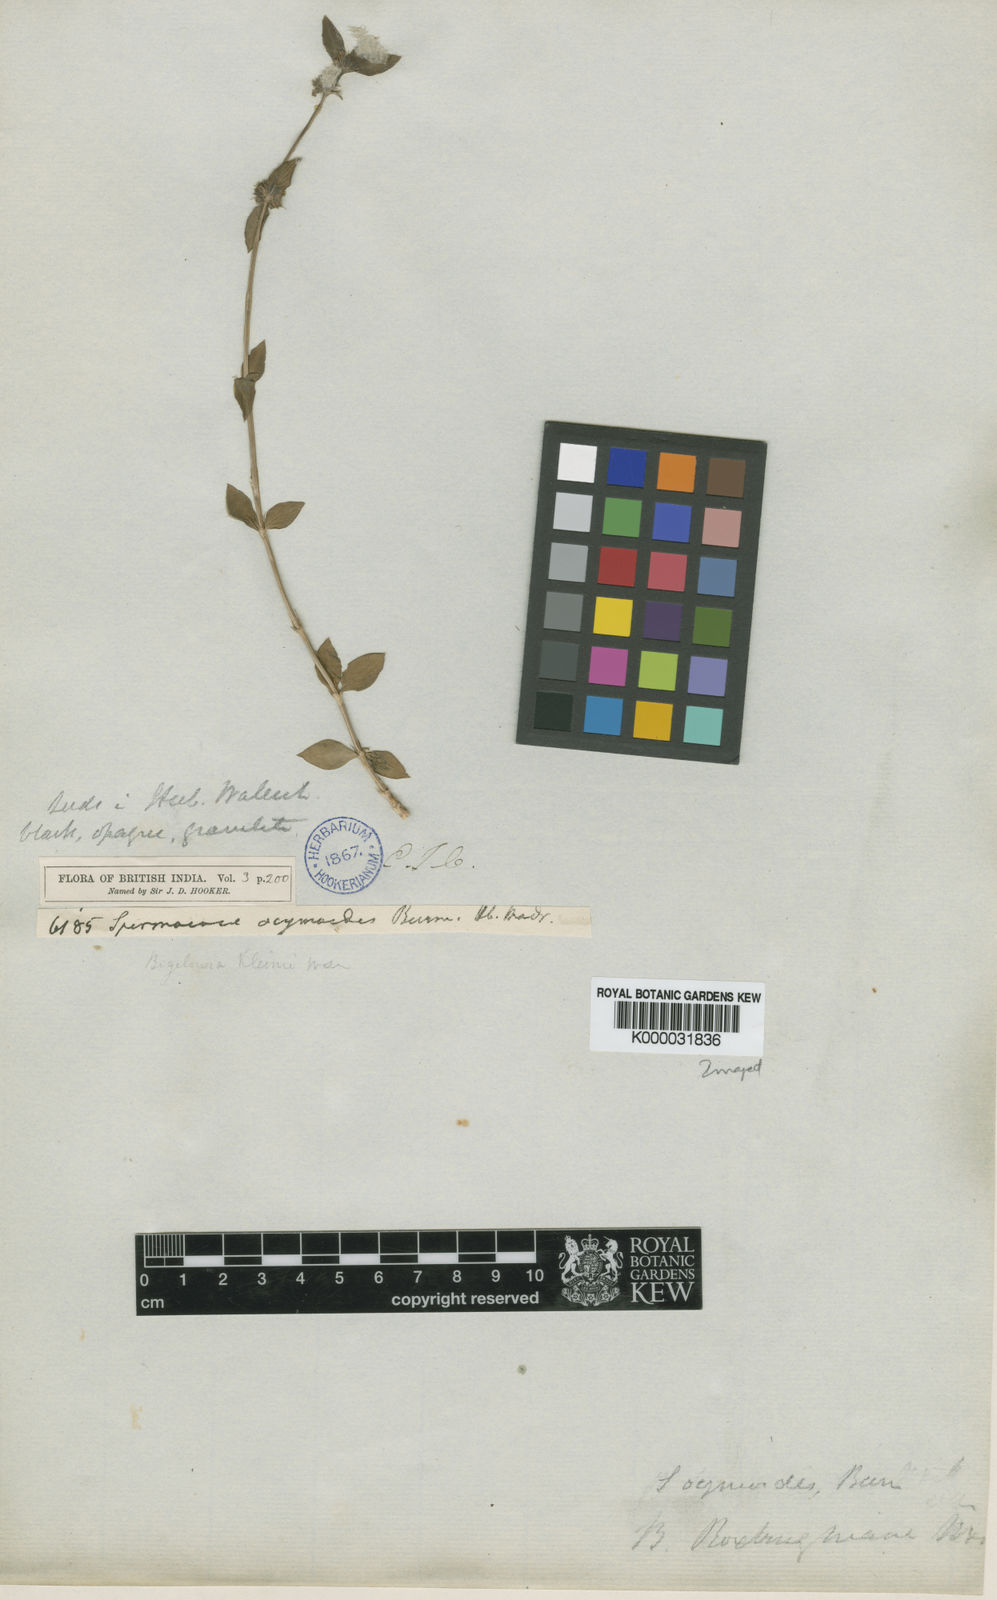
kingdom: Plantae
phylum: Tracheophyta
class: Magnoliopsida
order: Gentianales
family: Rubiaceae
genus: Spermacoce
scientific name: Spermacoce ocymoides
